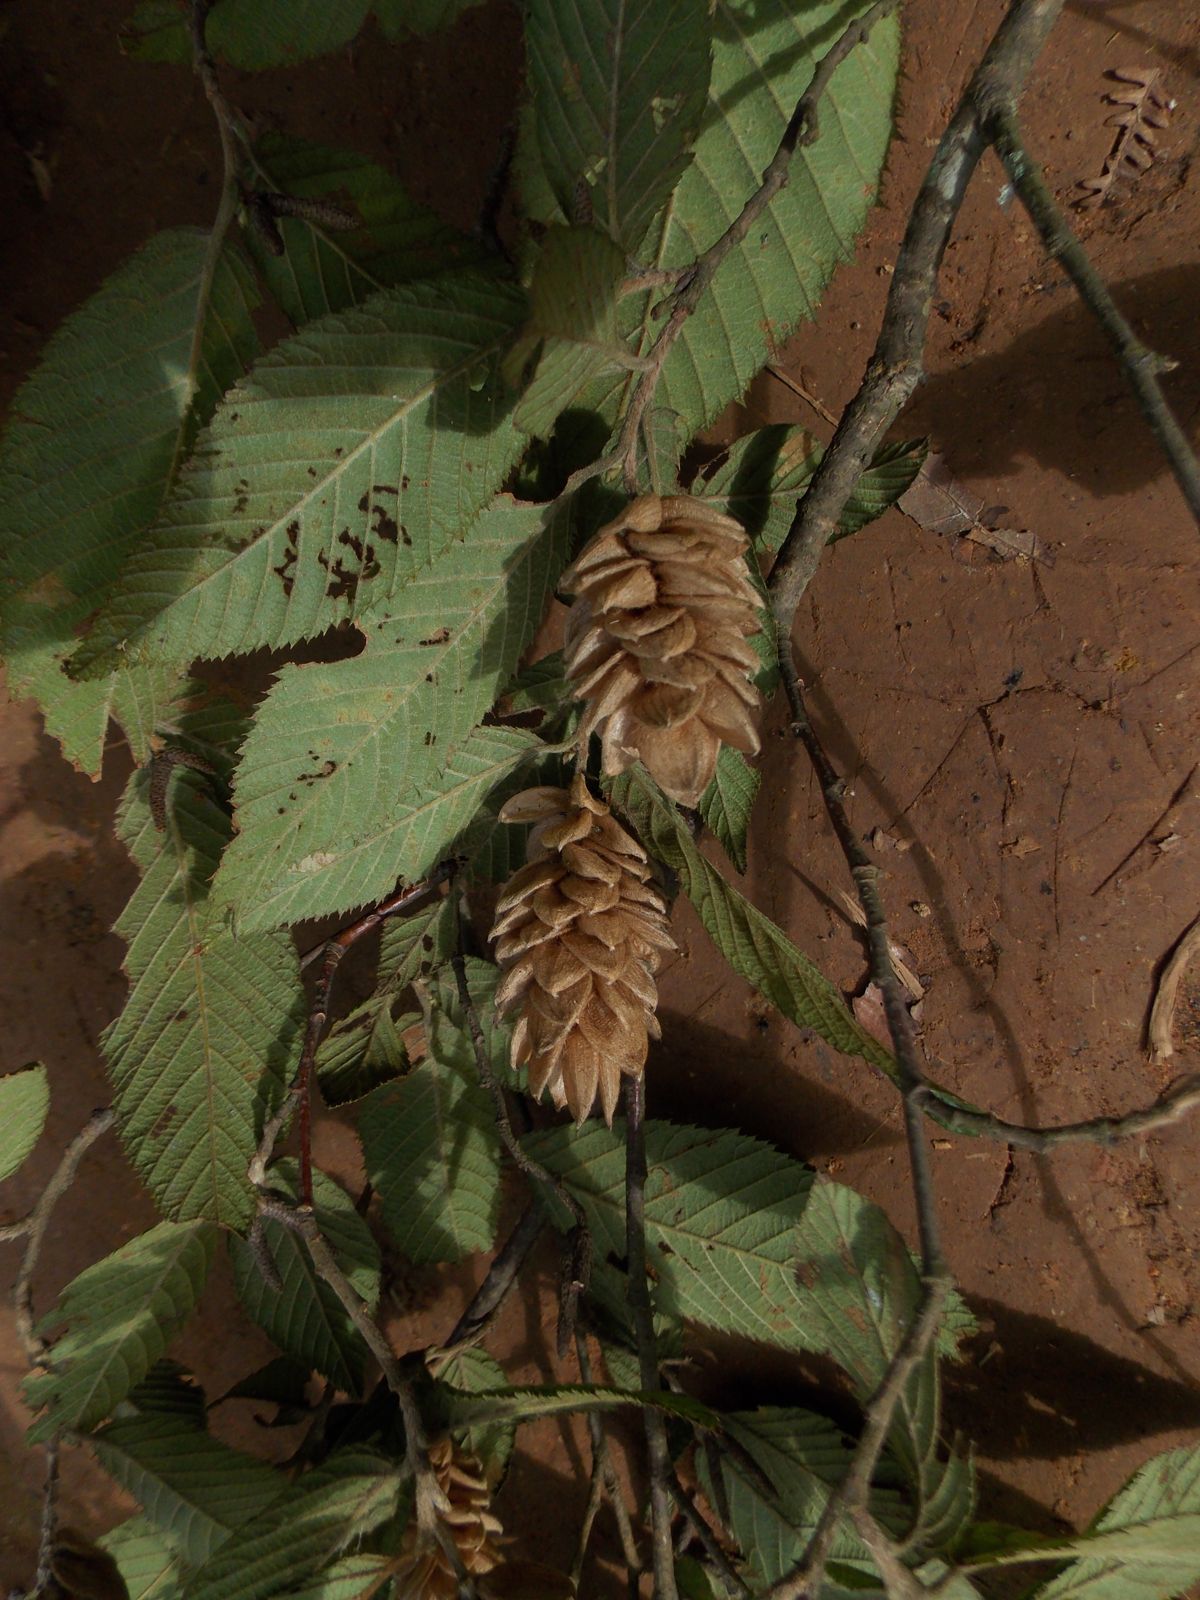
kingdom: Plantae
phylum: Tracheophyta
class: Magnoliopsida
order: Fagales
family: Betulaceae
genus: Ostrya
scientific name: Ostrya virginiana
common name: Ironwood
